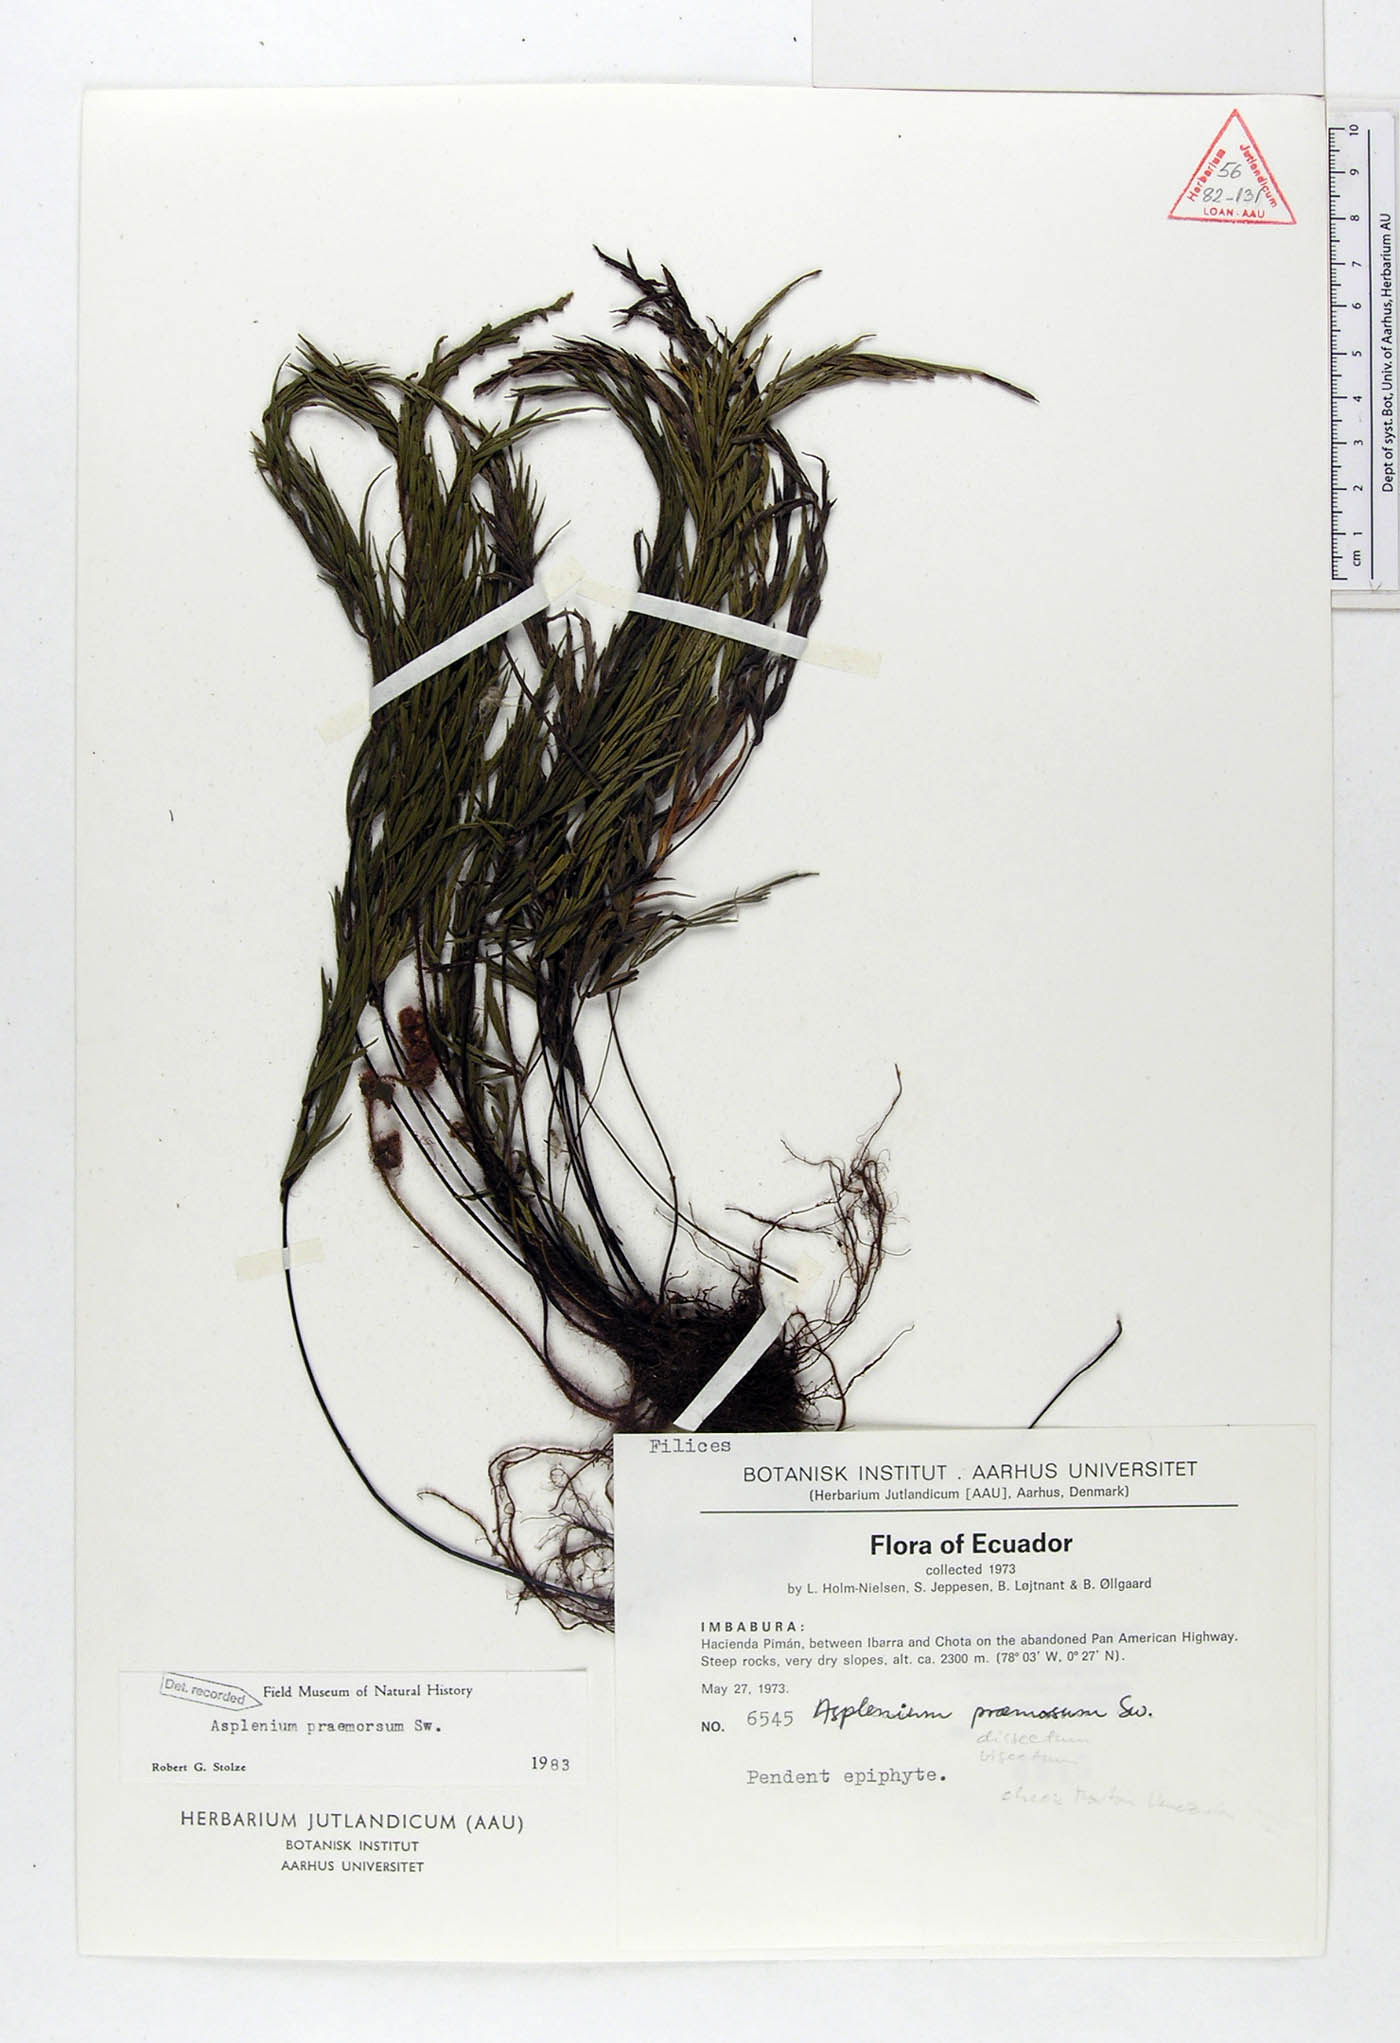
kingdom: Plantae
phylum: Tracheophyta
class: Polypodiopsida
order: Polypodiales
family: Aspleniaceae
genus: Asplenium
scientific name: Asplenium praemorsum
